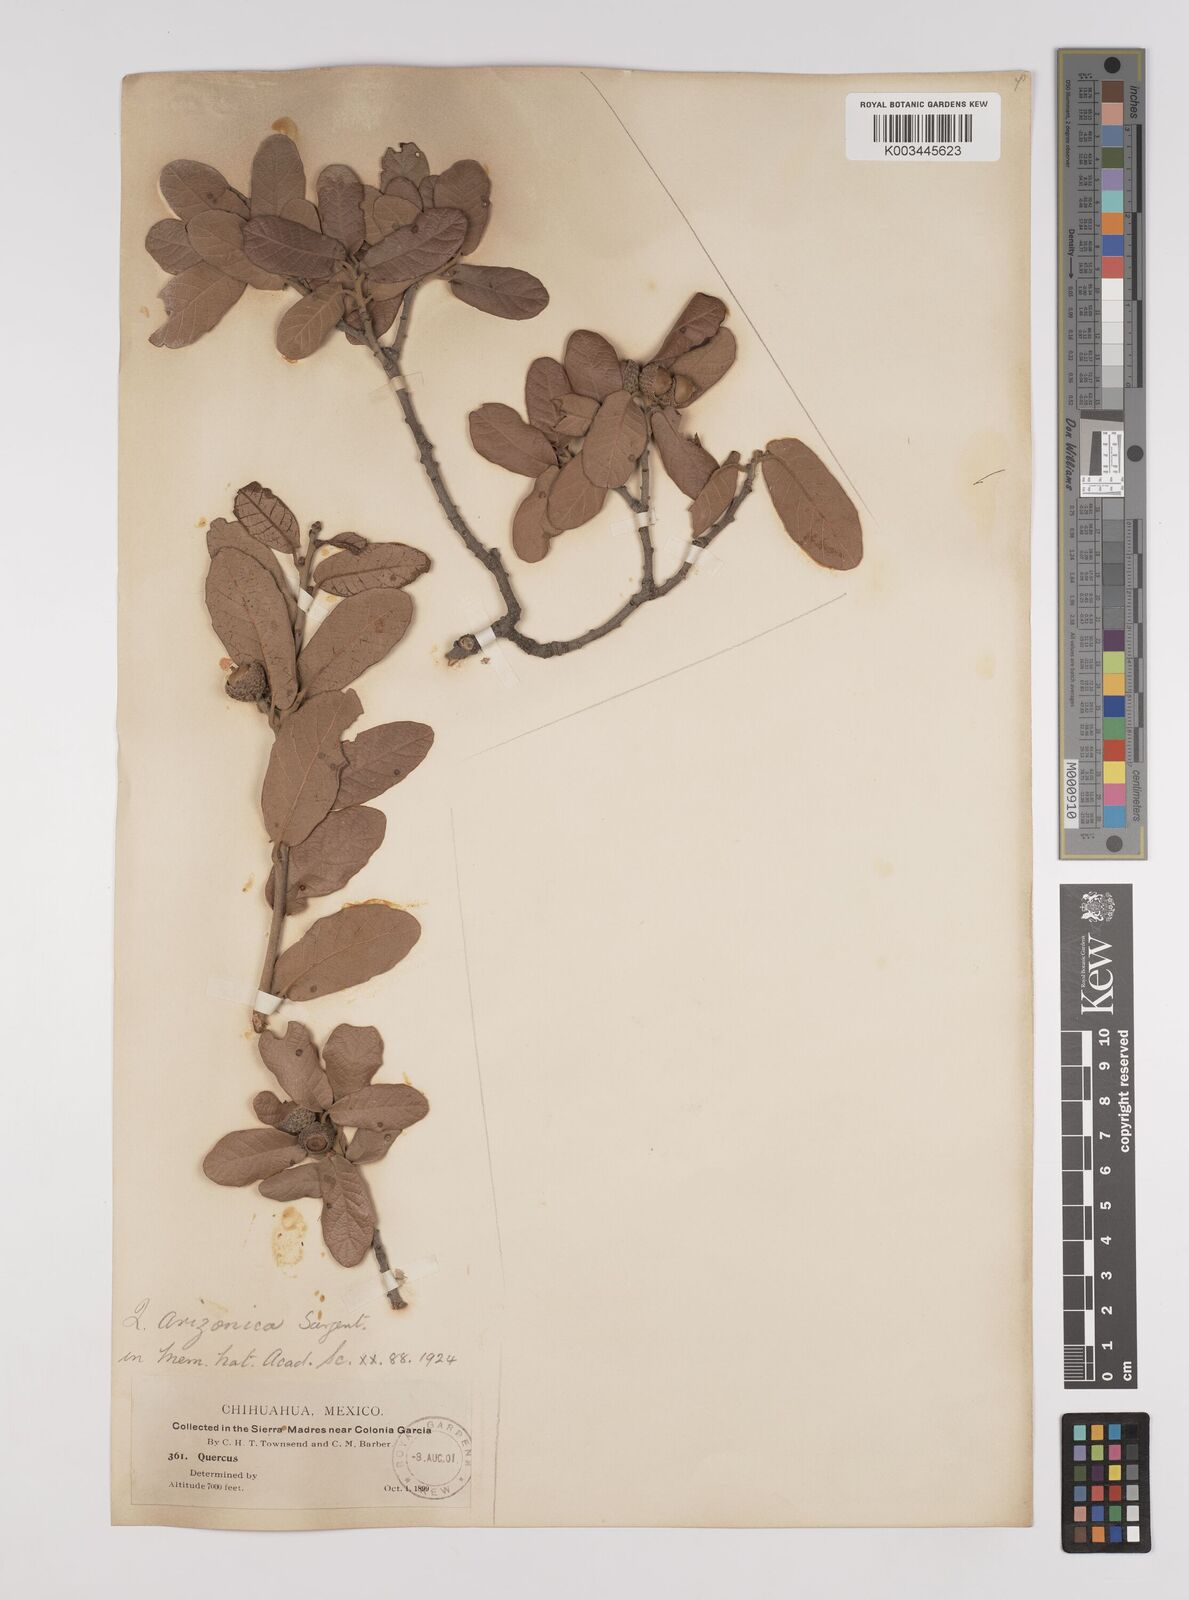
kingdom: Plantae
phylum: Tracheophyta
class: Magnoliopsida
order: Fagales
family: Fagaceae
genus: Quercus
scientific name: Quercus arizonica
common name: Arizona white oak
